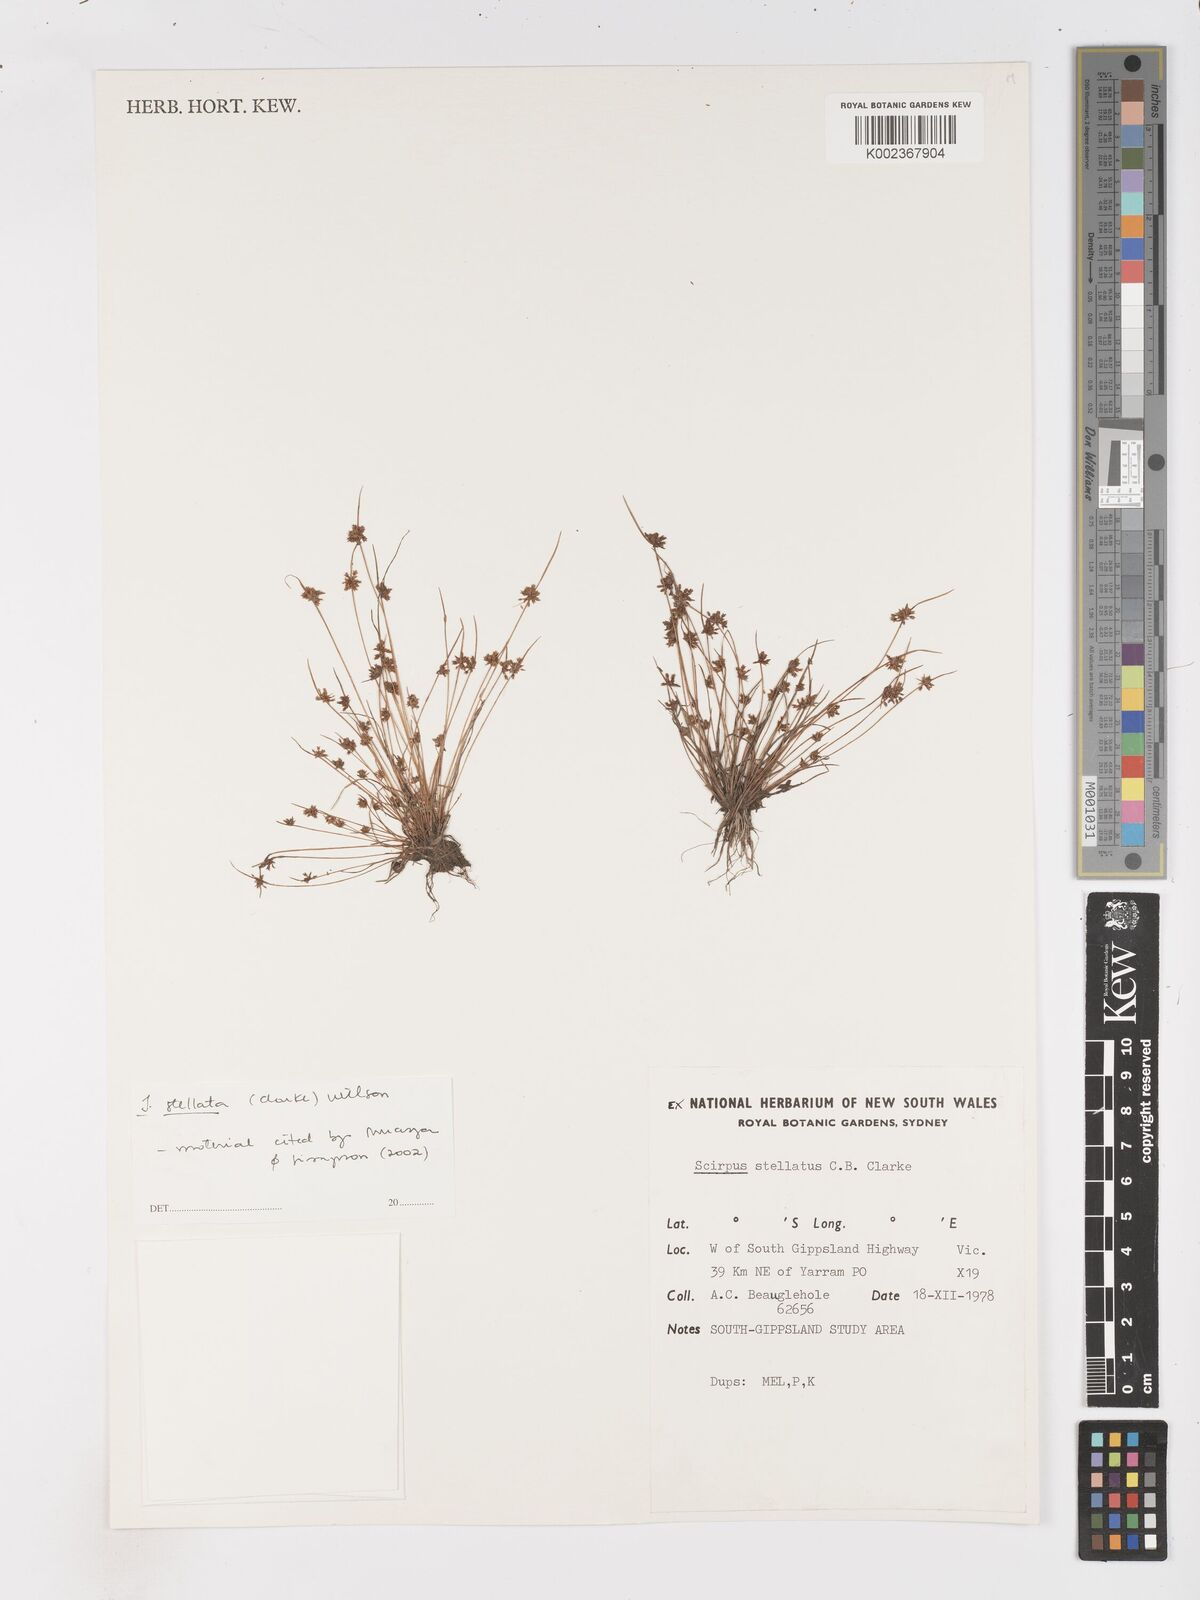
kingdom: Plantae
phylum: Tracheophyta
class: Liliopsida
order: Poales
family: Cyperaceae
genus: Isolepis
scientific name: Isolepis stellata
